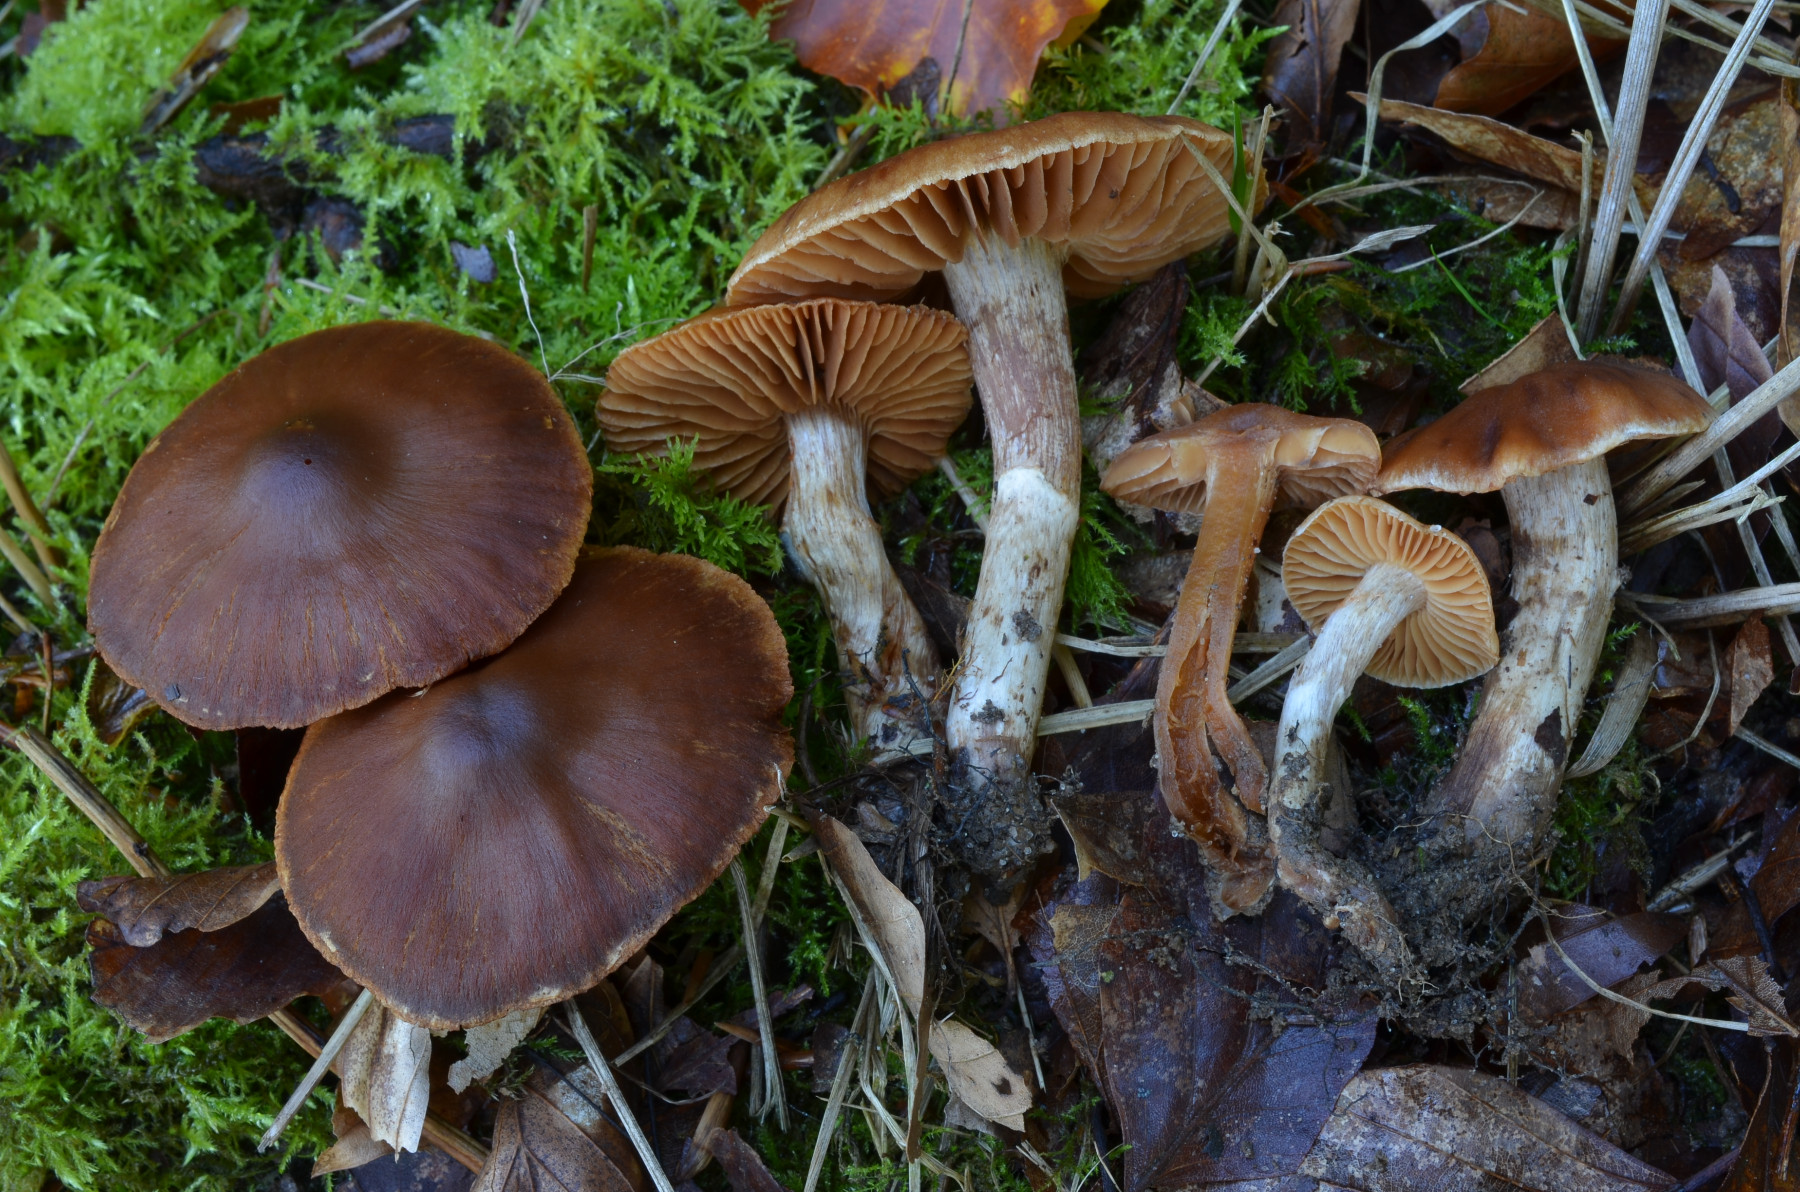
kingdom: Fungi
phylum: Basidiomycota
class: Agaricomycetes
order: Agaricales
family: Cortinariaceae
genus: Cortinarius
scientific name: Cortinarius luridus
